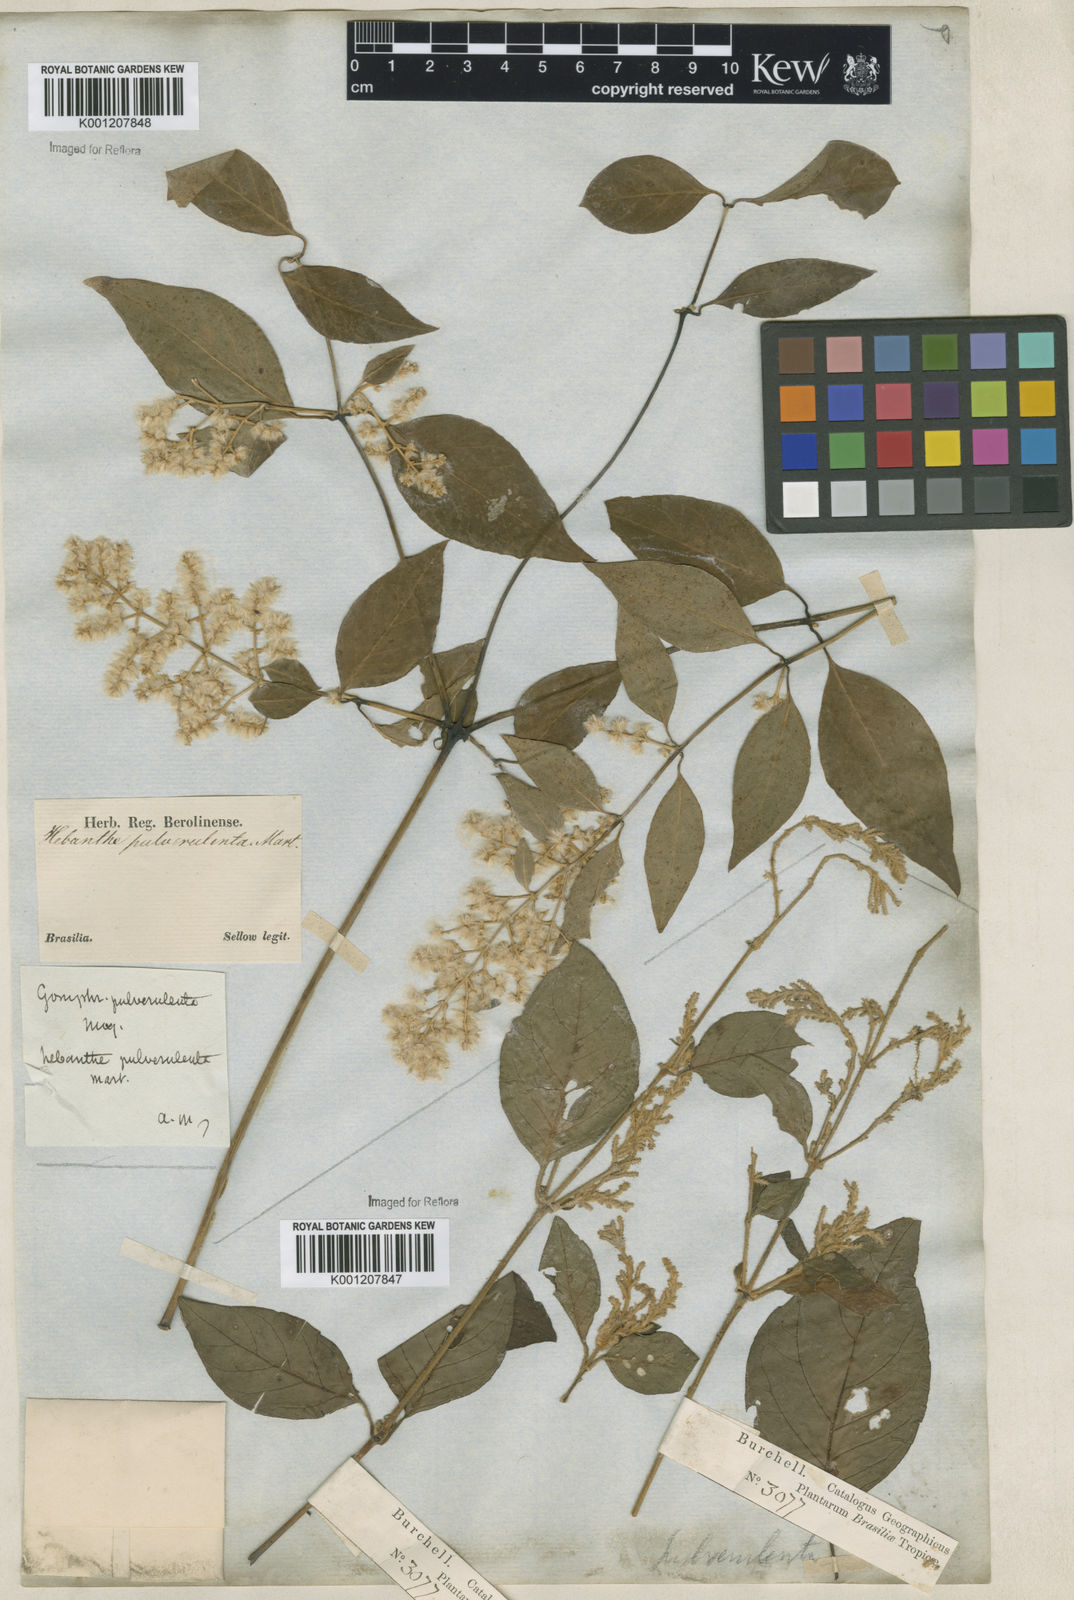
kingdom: Plantae
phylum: Tracheophyta
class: Magnoliopsida
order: Caryophyllales
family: Amaranthaceae
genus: Hebanthe
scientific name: Hebanthe pulverulenta
